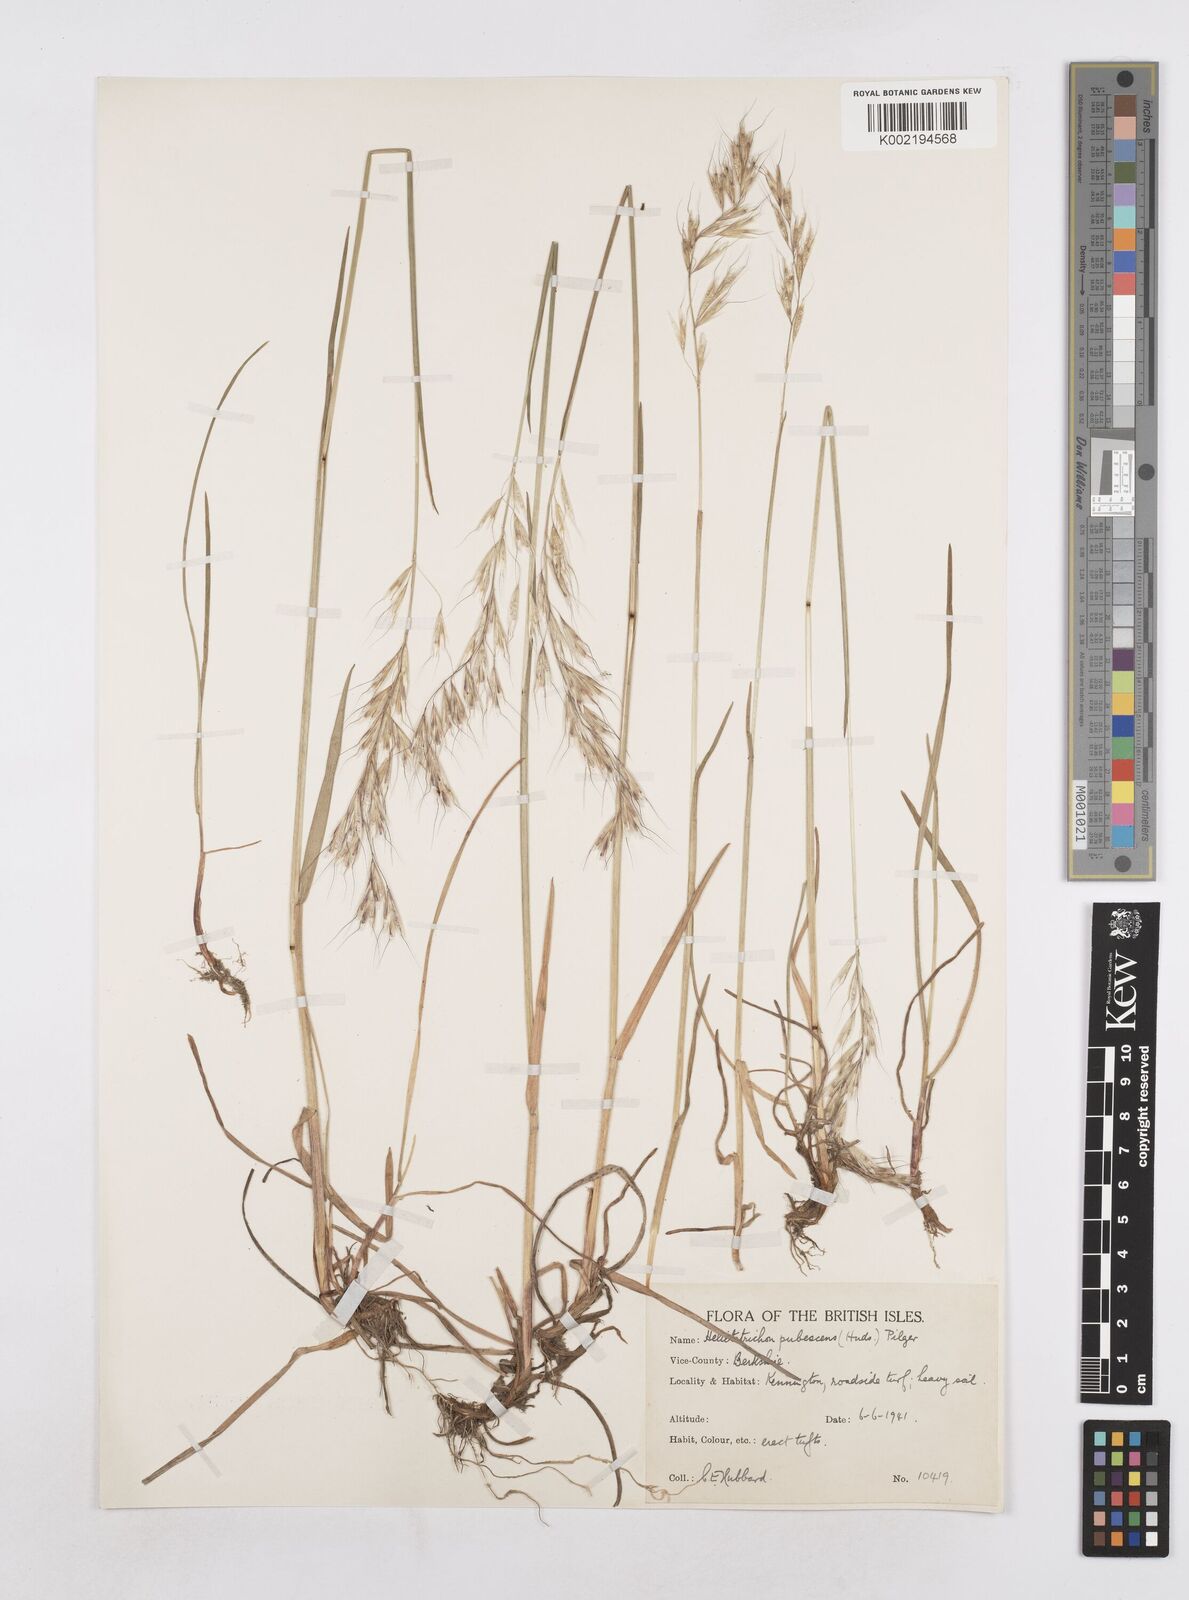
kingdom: Plantae
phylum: Tracheophyta
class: Liliopsida
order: Poales
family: Poaceae
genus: Avenula
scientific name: Avenula pubescens
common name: Downy alpine oatgrass
